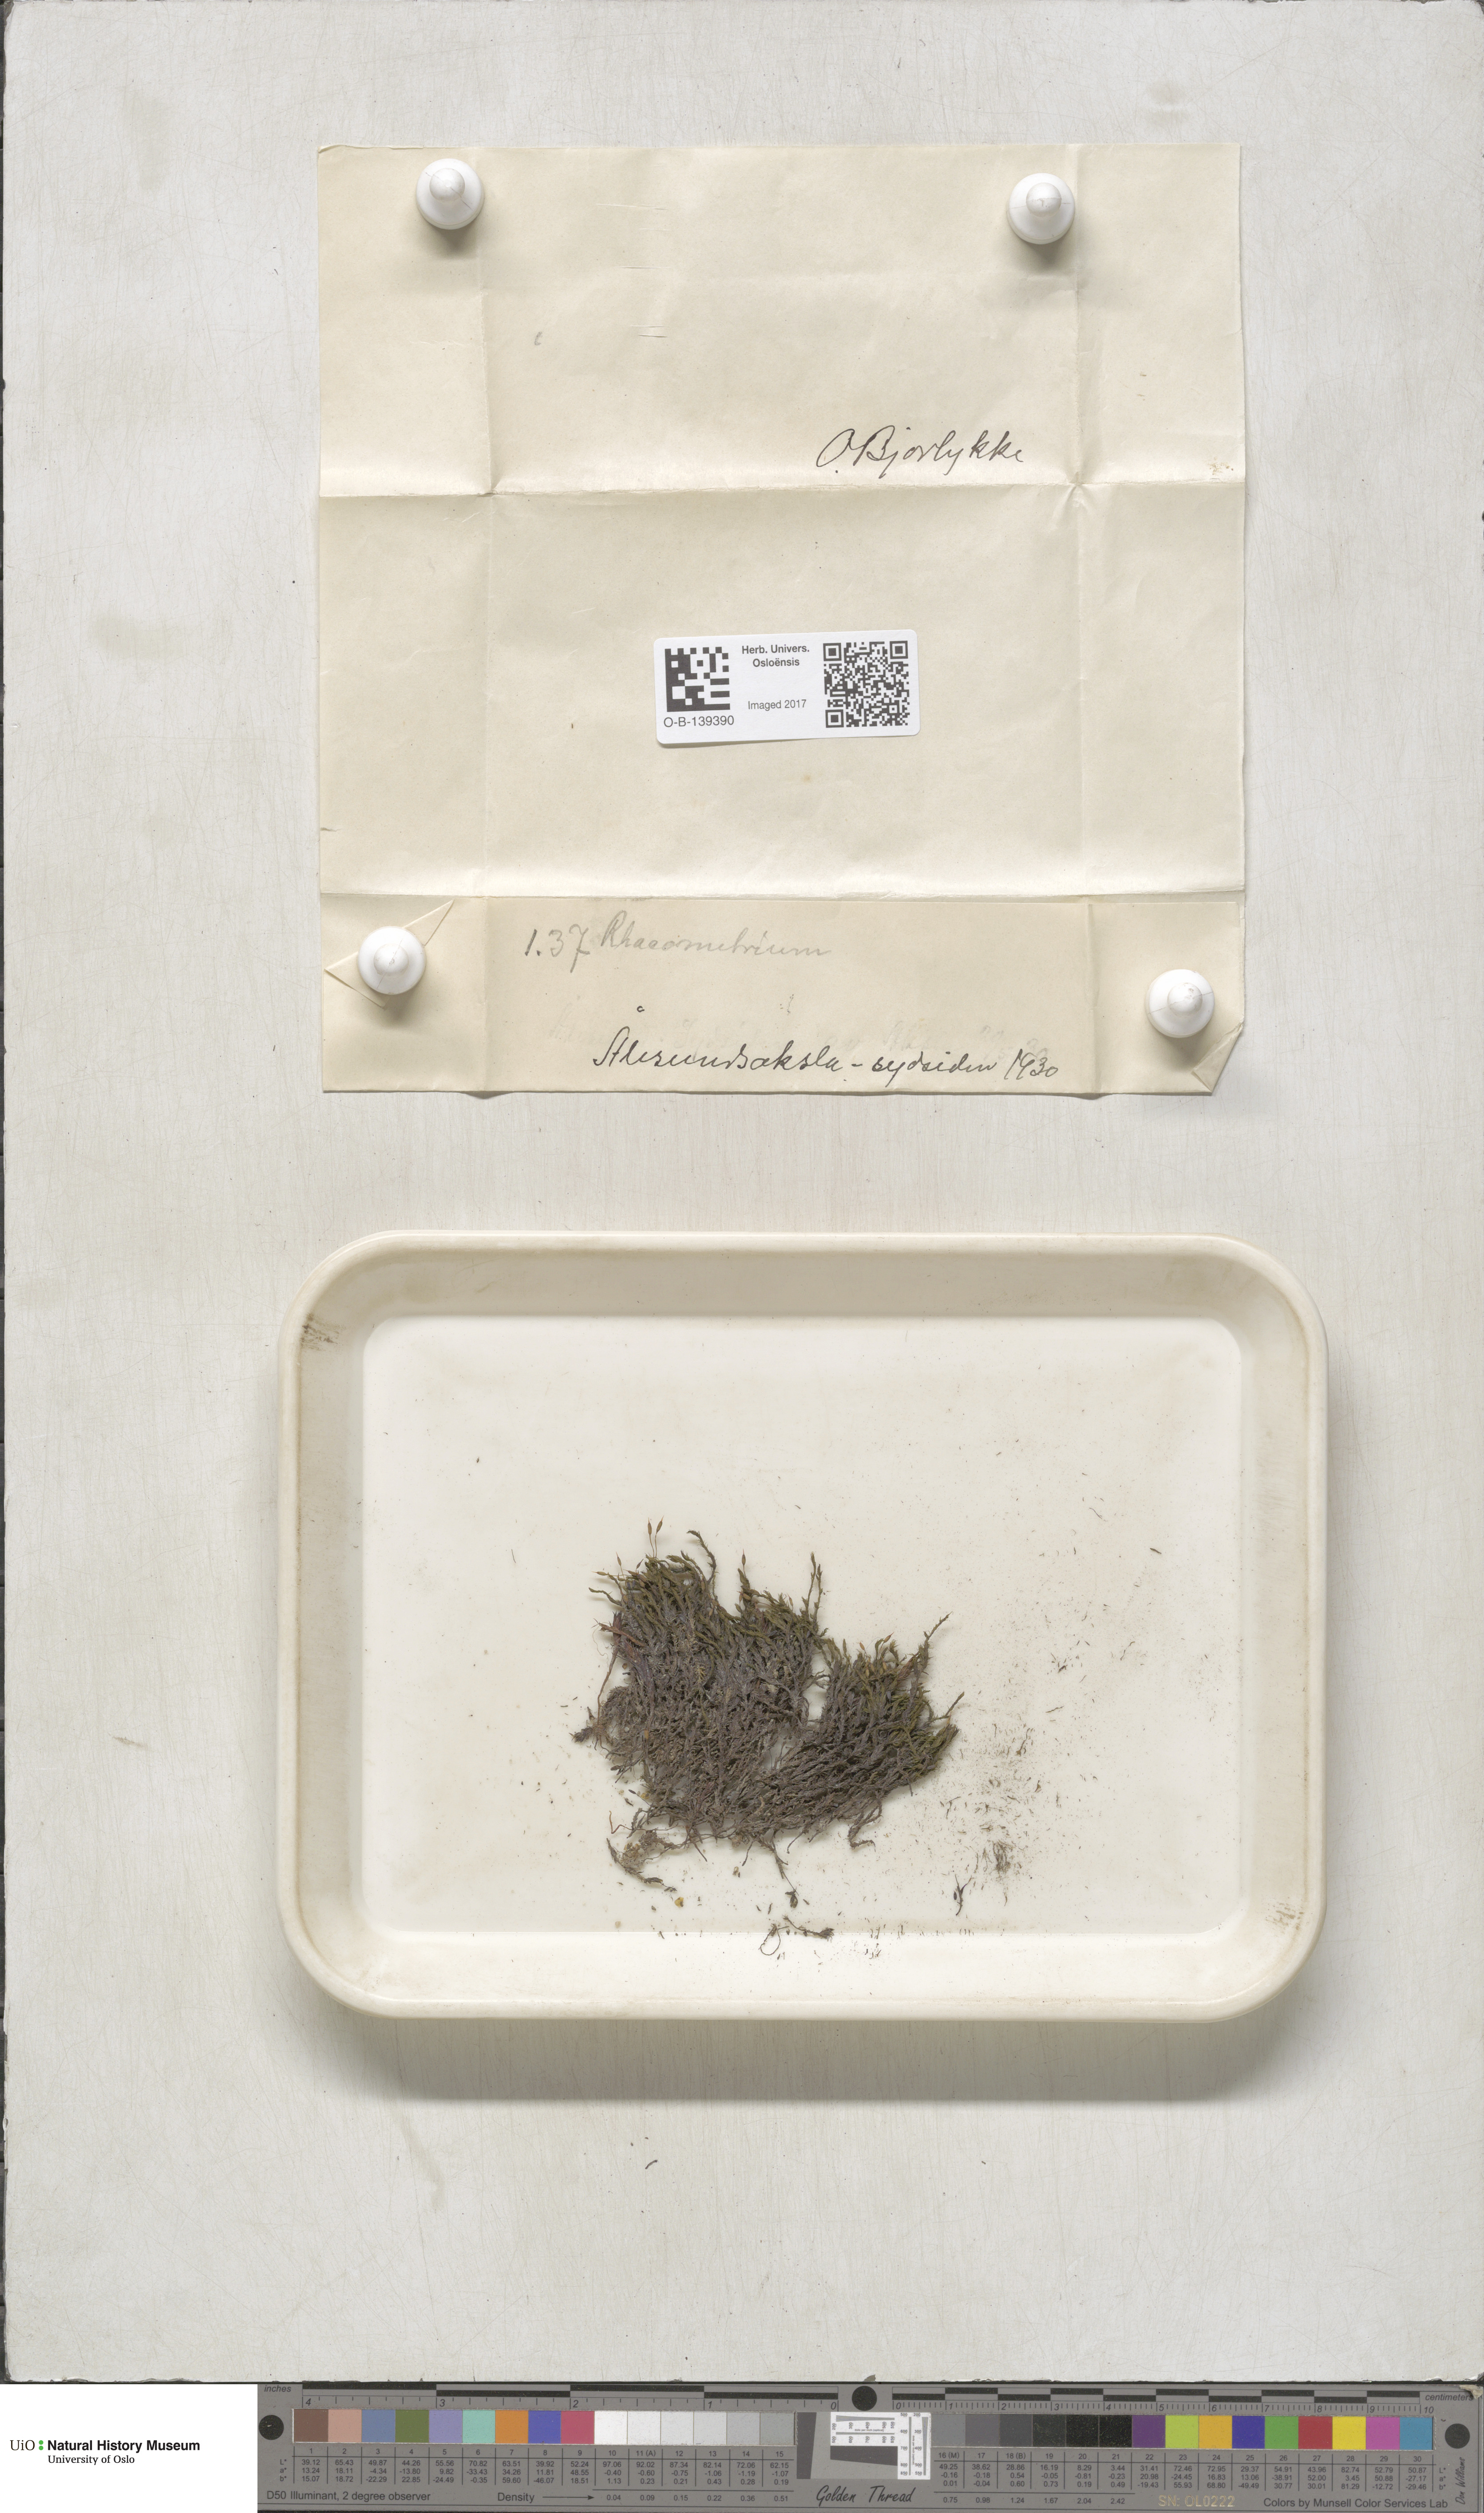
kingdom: Plantae
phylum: Bryophyta
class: Bryopsida
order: Grimmiales
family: Grimmiaceae
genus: Racomitrium
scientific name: Racomitrium
